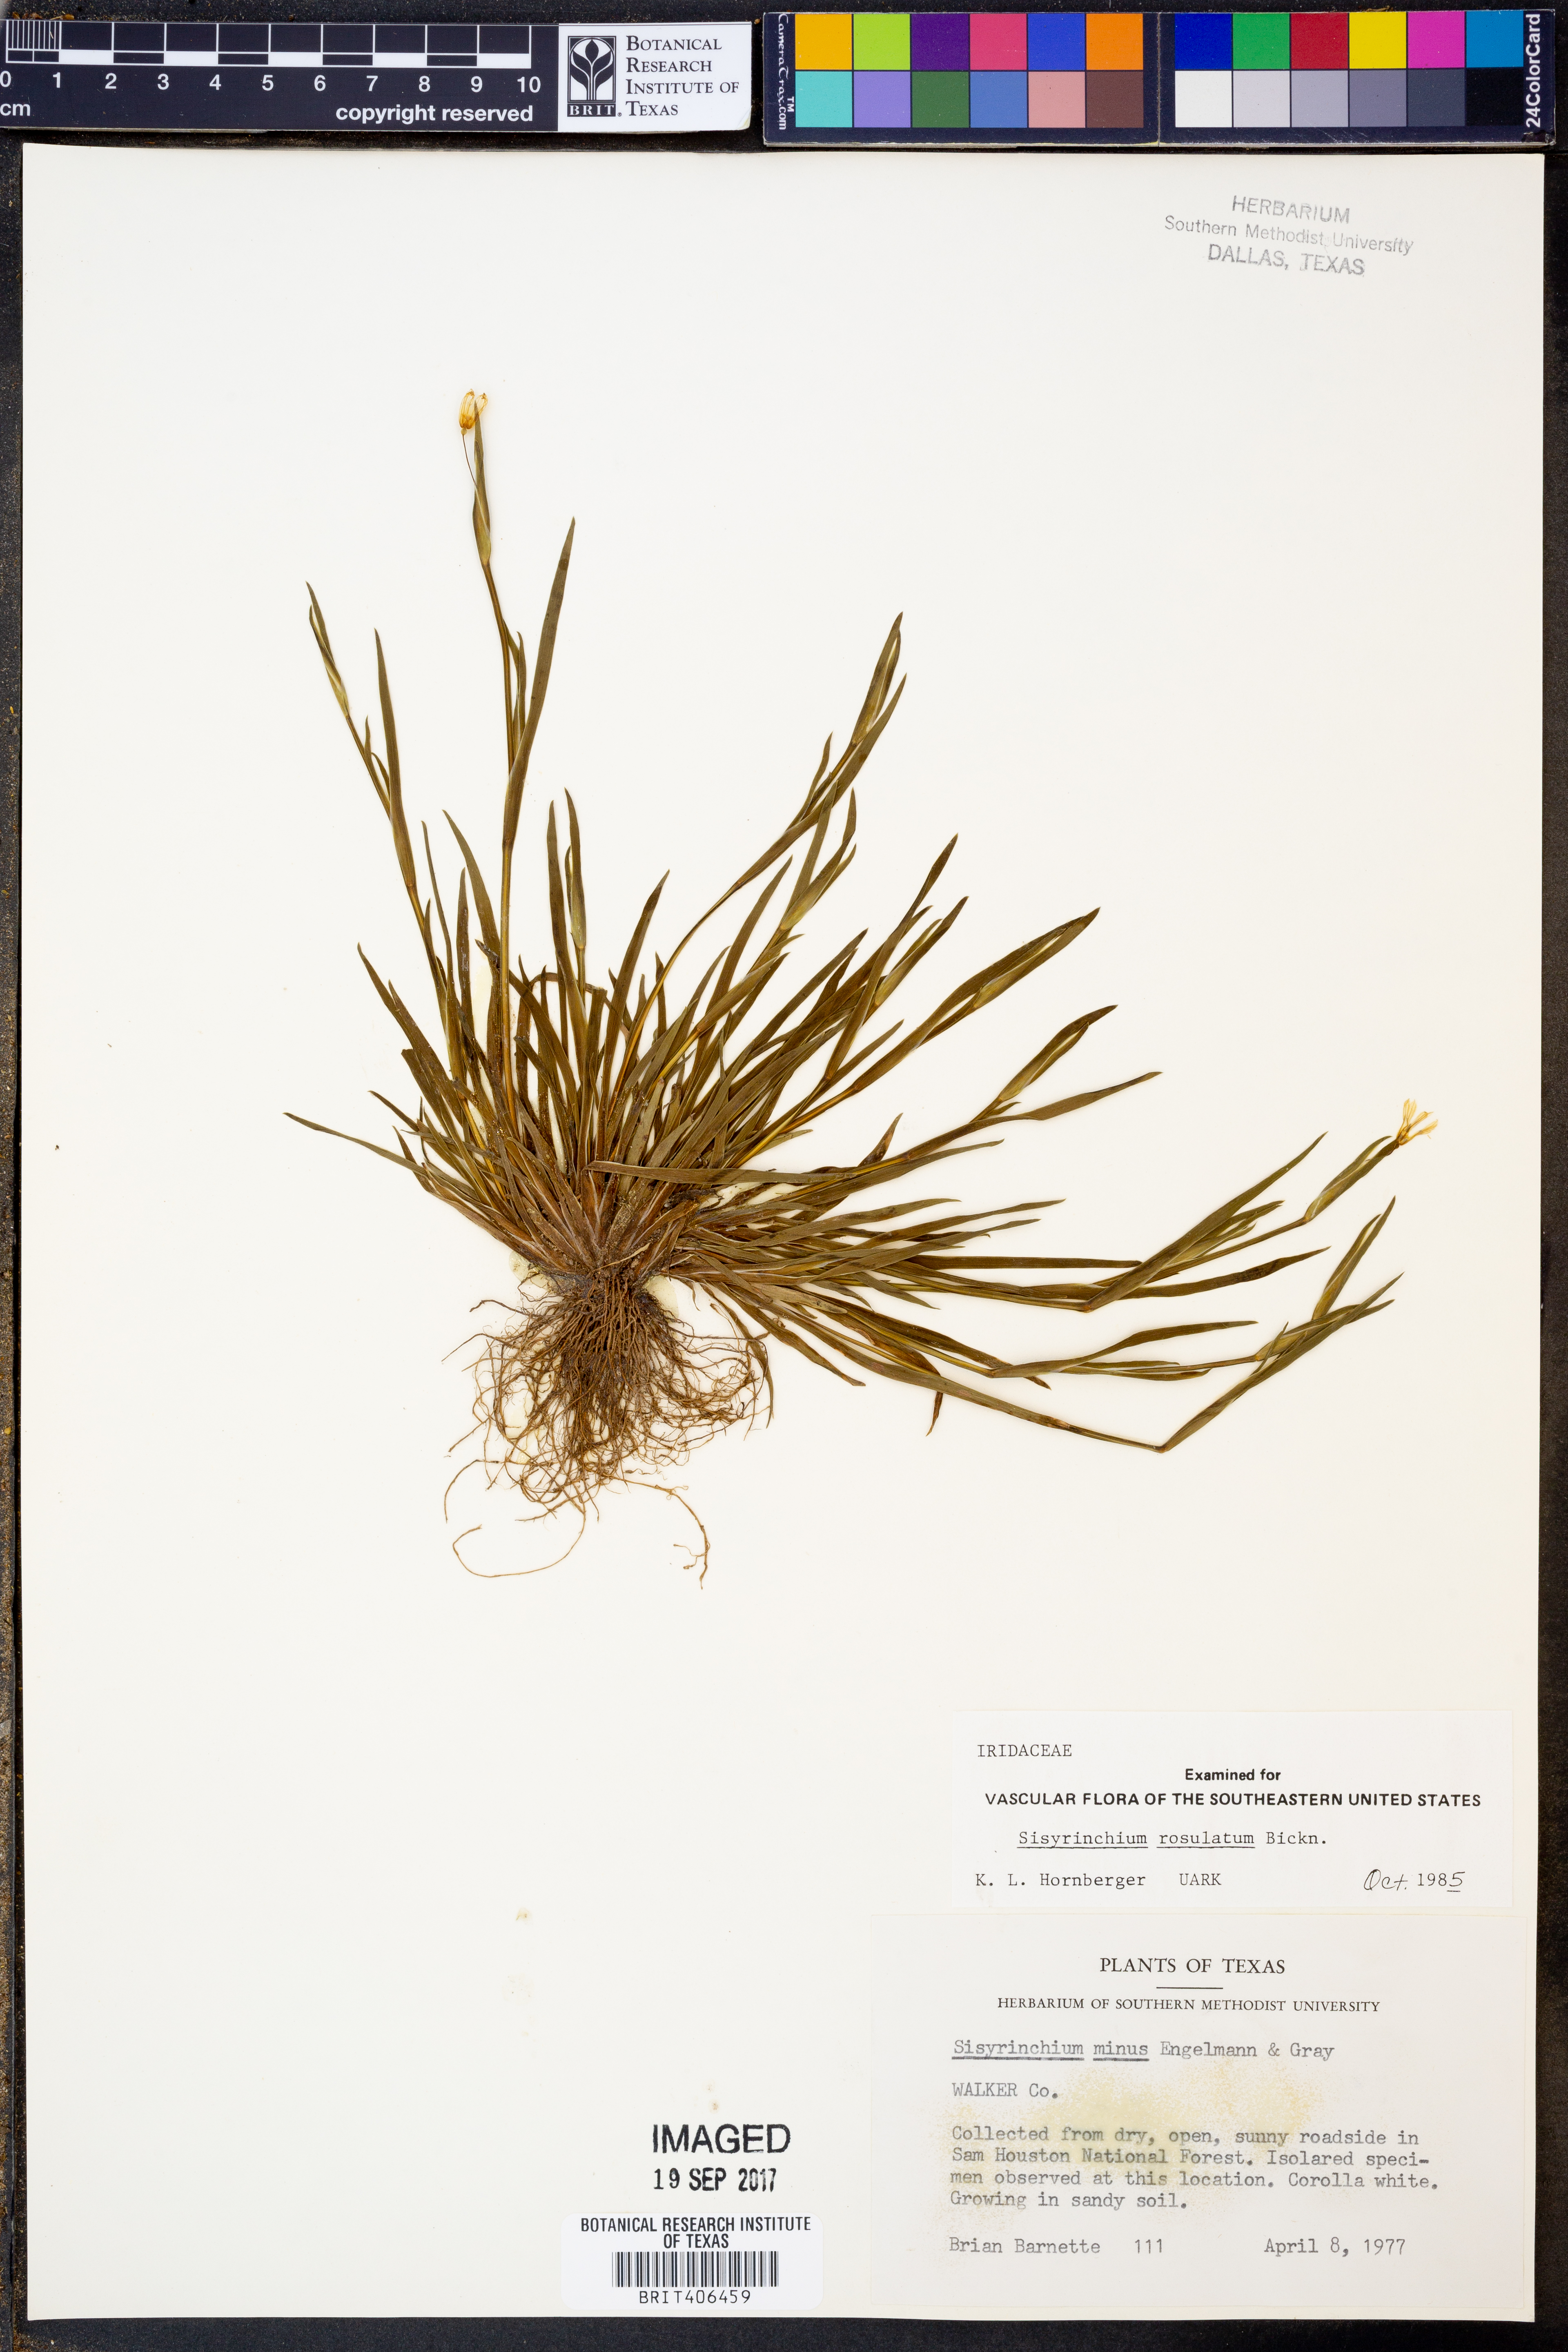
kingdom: Plantae
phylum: Tracheophyta
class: Liliopsida
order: Asparagales
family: Iridaceae
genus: Sisyrinchium
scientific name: Sisyrinchium rosulatum
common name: Annual blue-eyed grass
